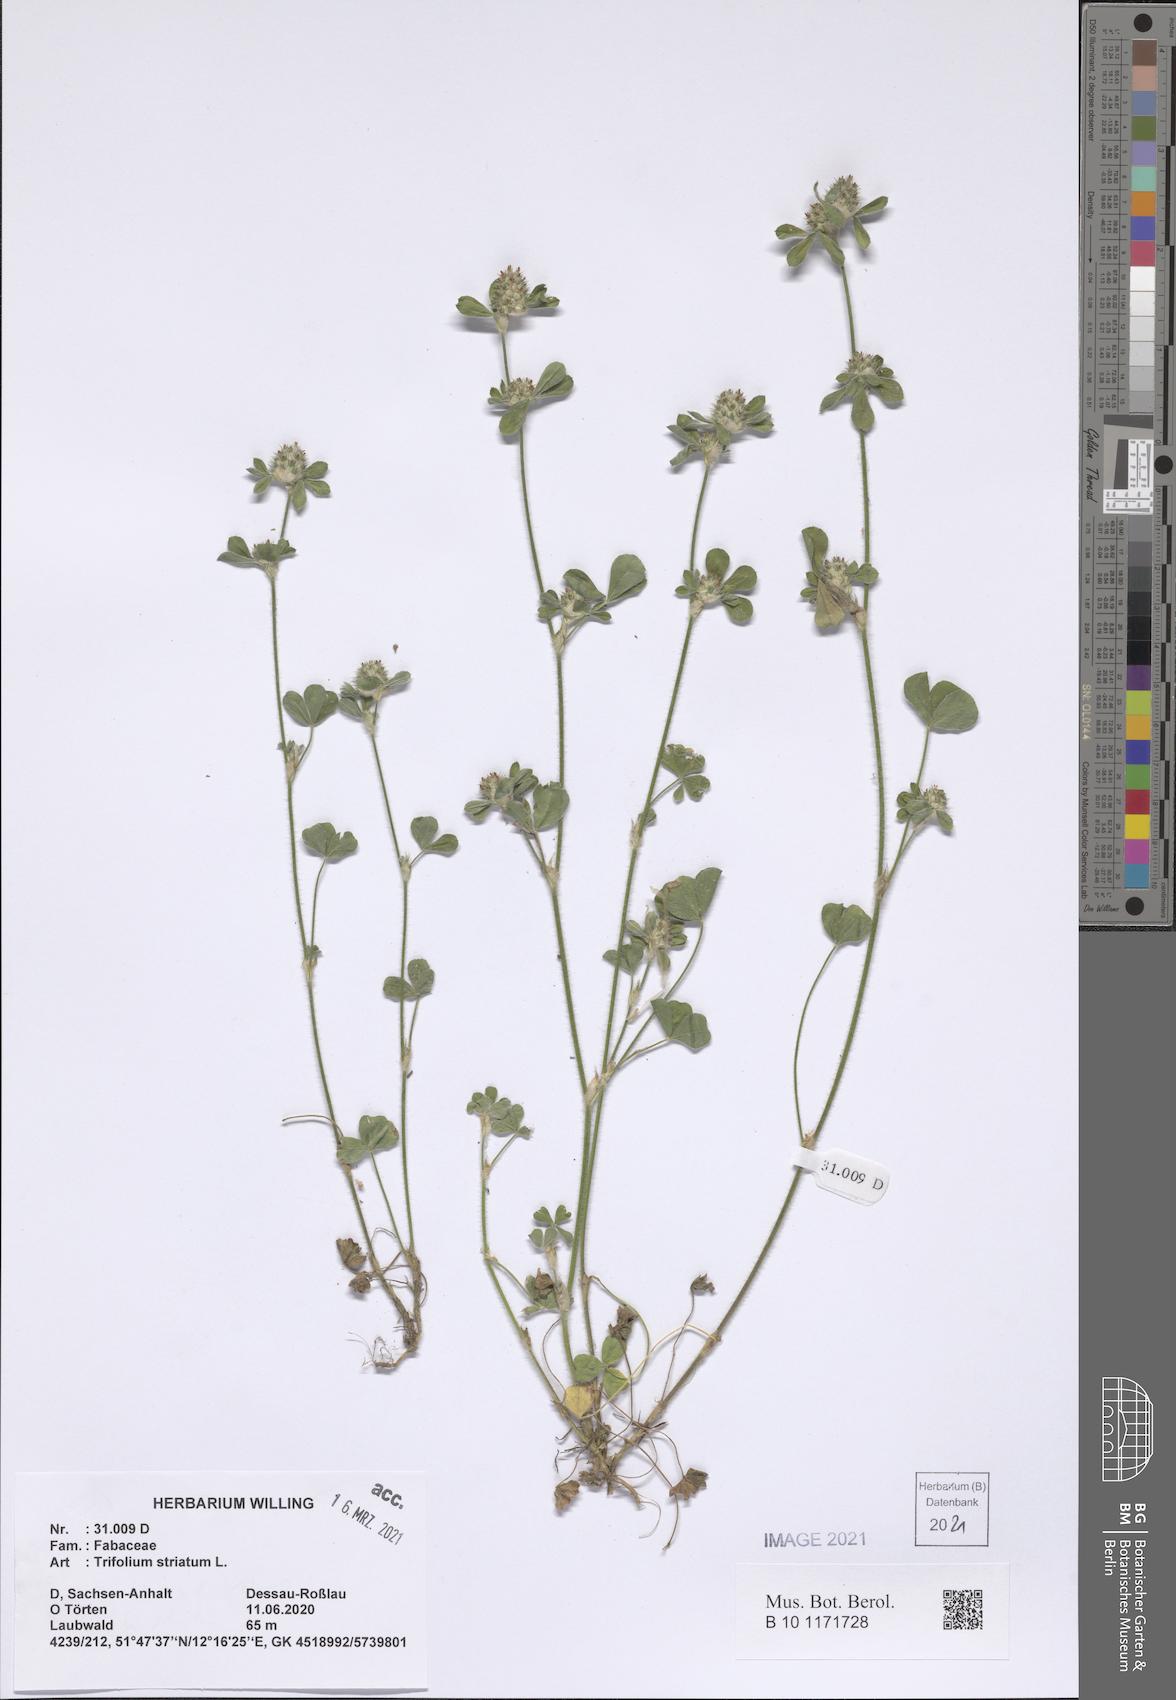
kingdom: Plantae
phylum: Tracheophyta
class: Magnoliopsida
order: Fabales
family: Fabaceae
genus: Trifolium
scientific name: Trifolium striatum
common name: Knotted clover
